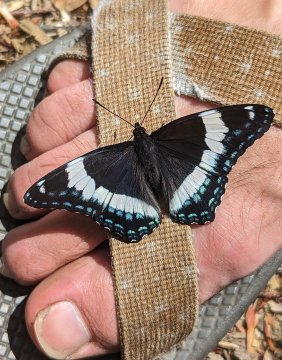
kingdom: Animalia
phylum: Arthropoda
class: Insecta
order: Lepidoptera
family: Nymphalidae
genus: Limenitis
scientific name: Limenitis arthemis
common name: Red-spotted Admiral
